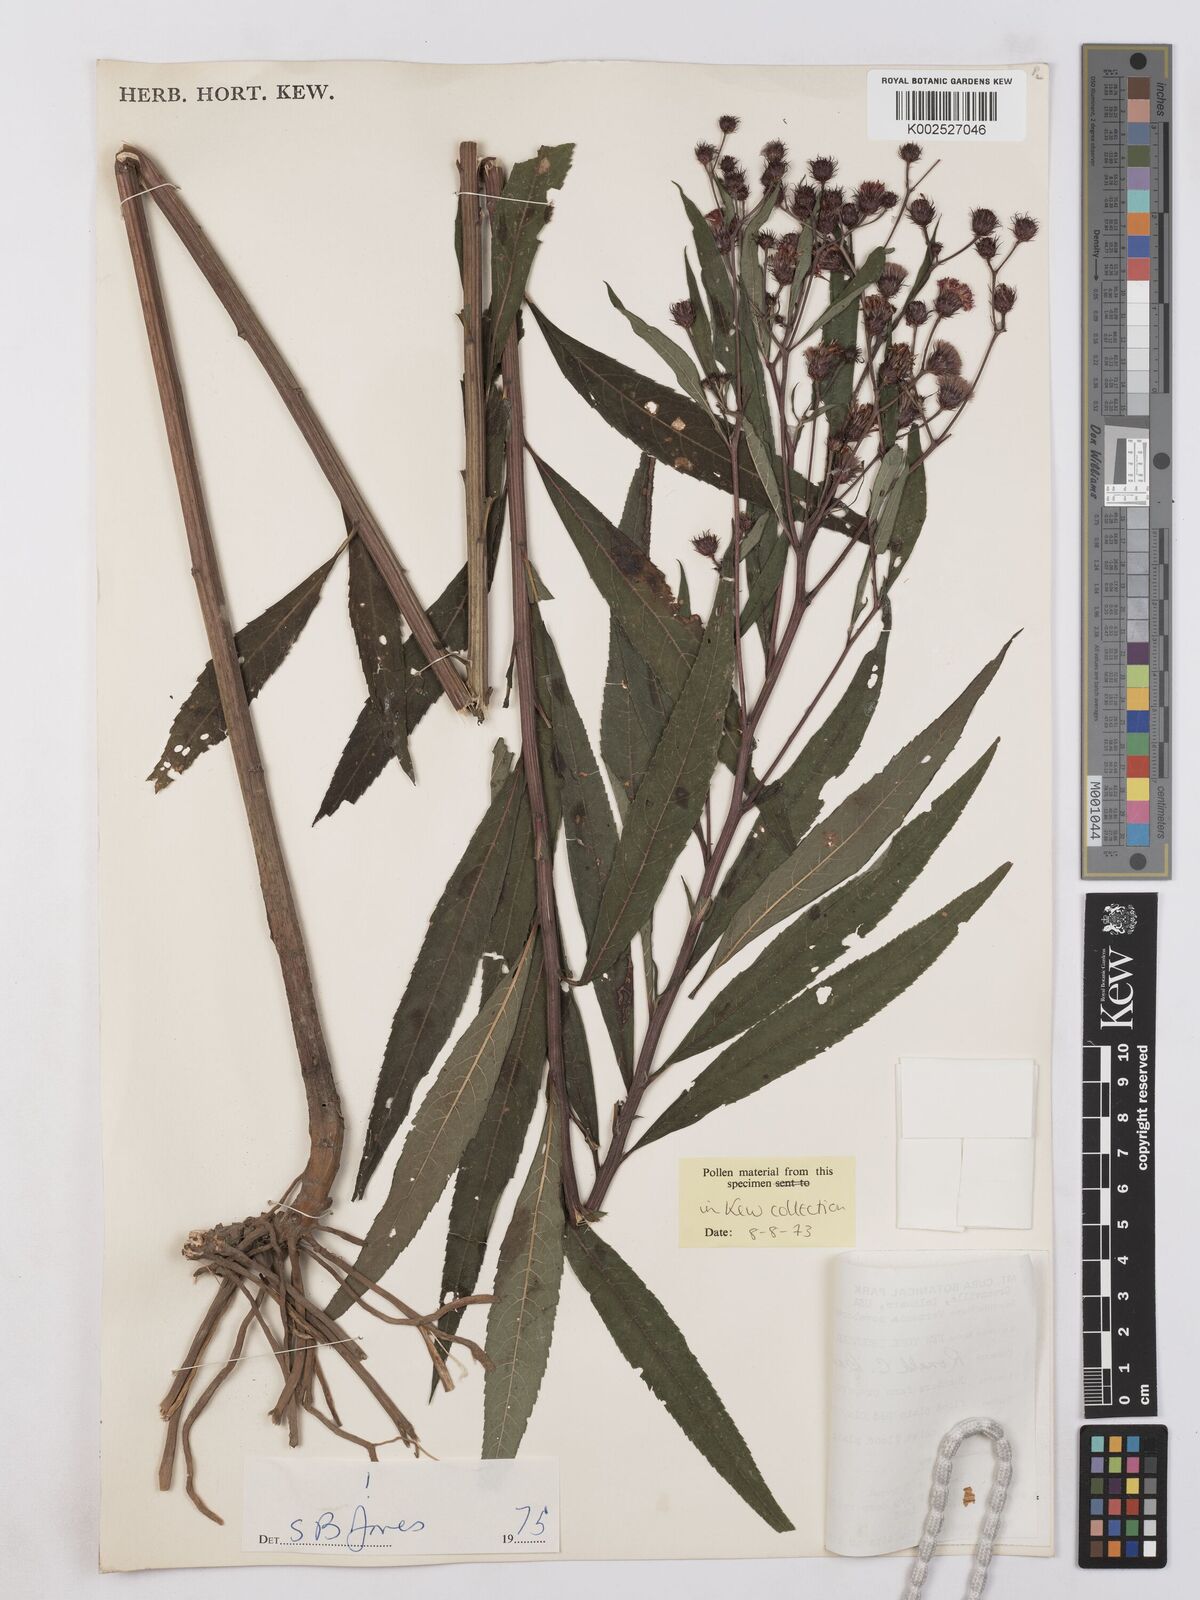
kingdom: Plantae
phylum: Tracheophyta
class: Magnoliopsida
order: Asterales
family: Asteraceae
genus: Vernonia
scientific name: Vernonia noveboracensis
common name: New york ironweed
